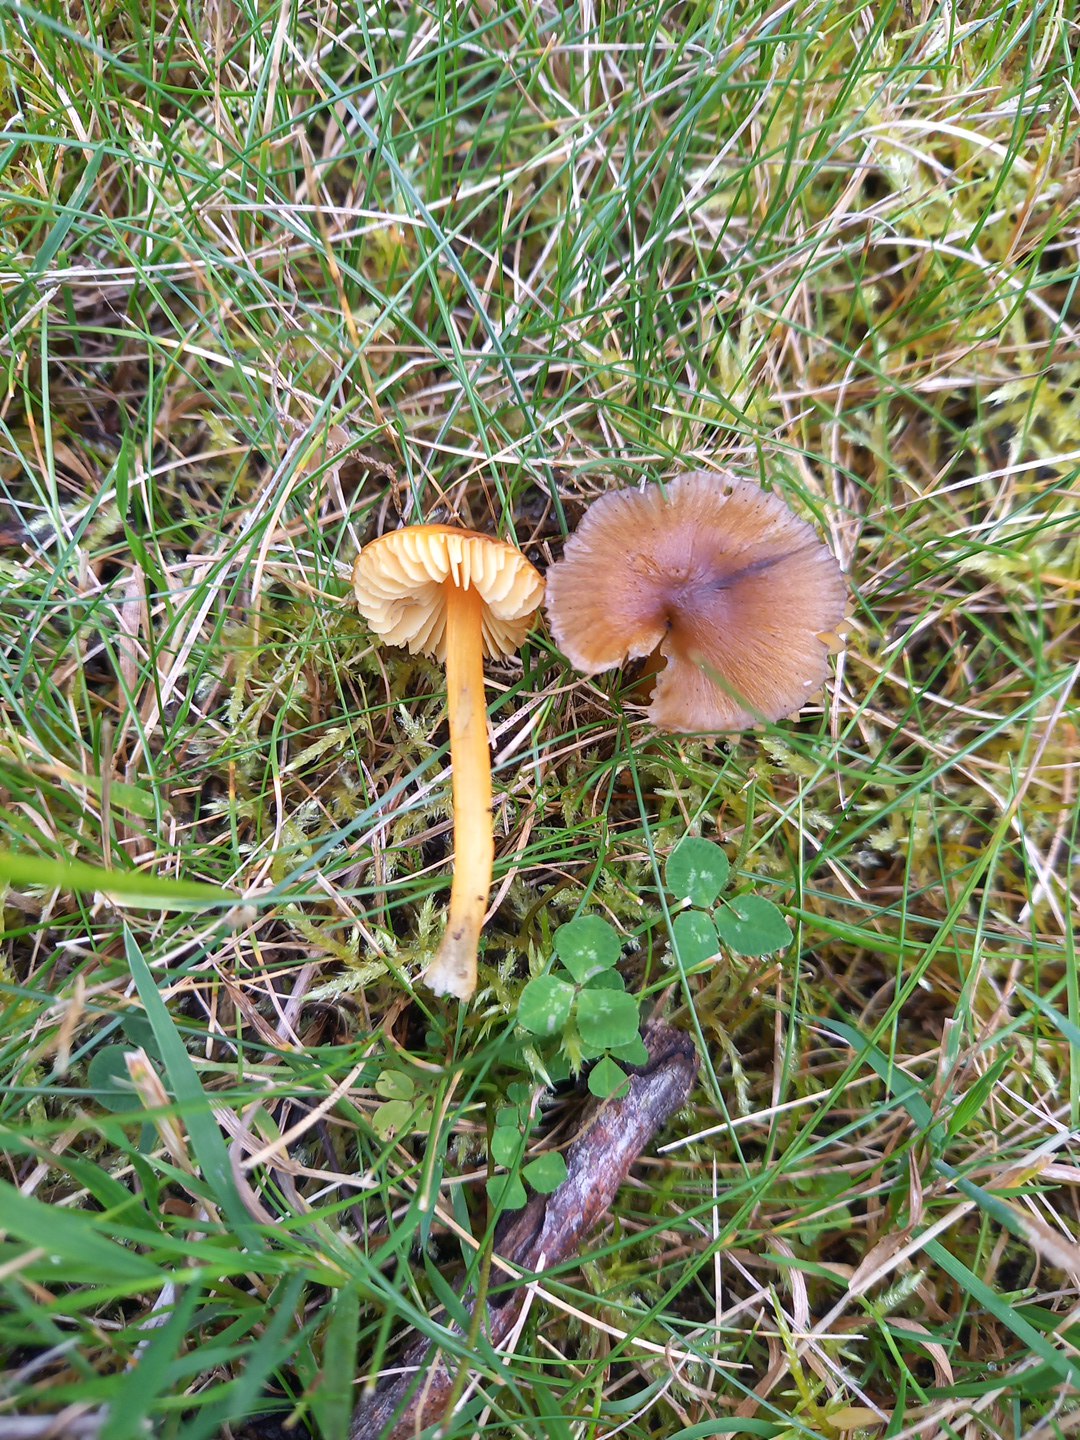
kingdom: Fungi
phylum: Basidiomycota
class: Agaricomycetes
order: Agaricales
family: Hygrophoraceae
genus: Hygrocybe
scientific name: Hygrocybe conica
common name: kegle-vokshat
